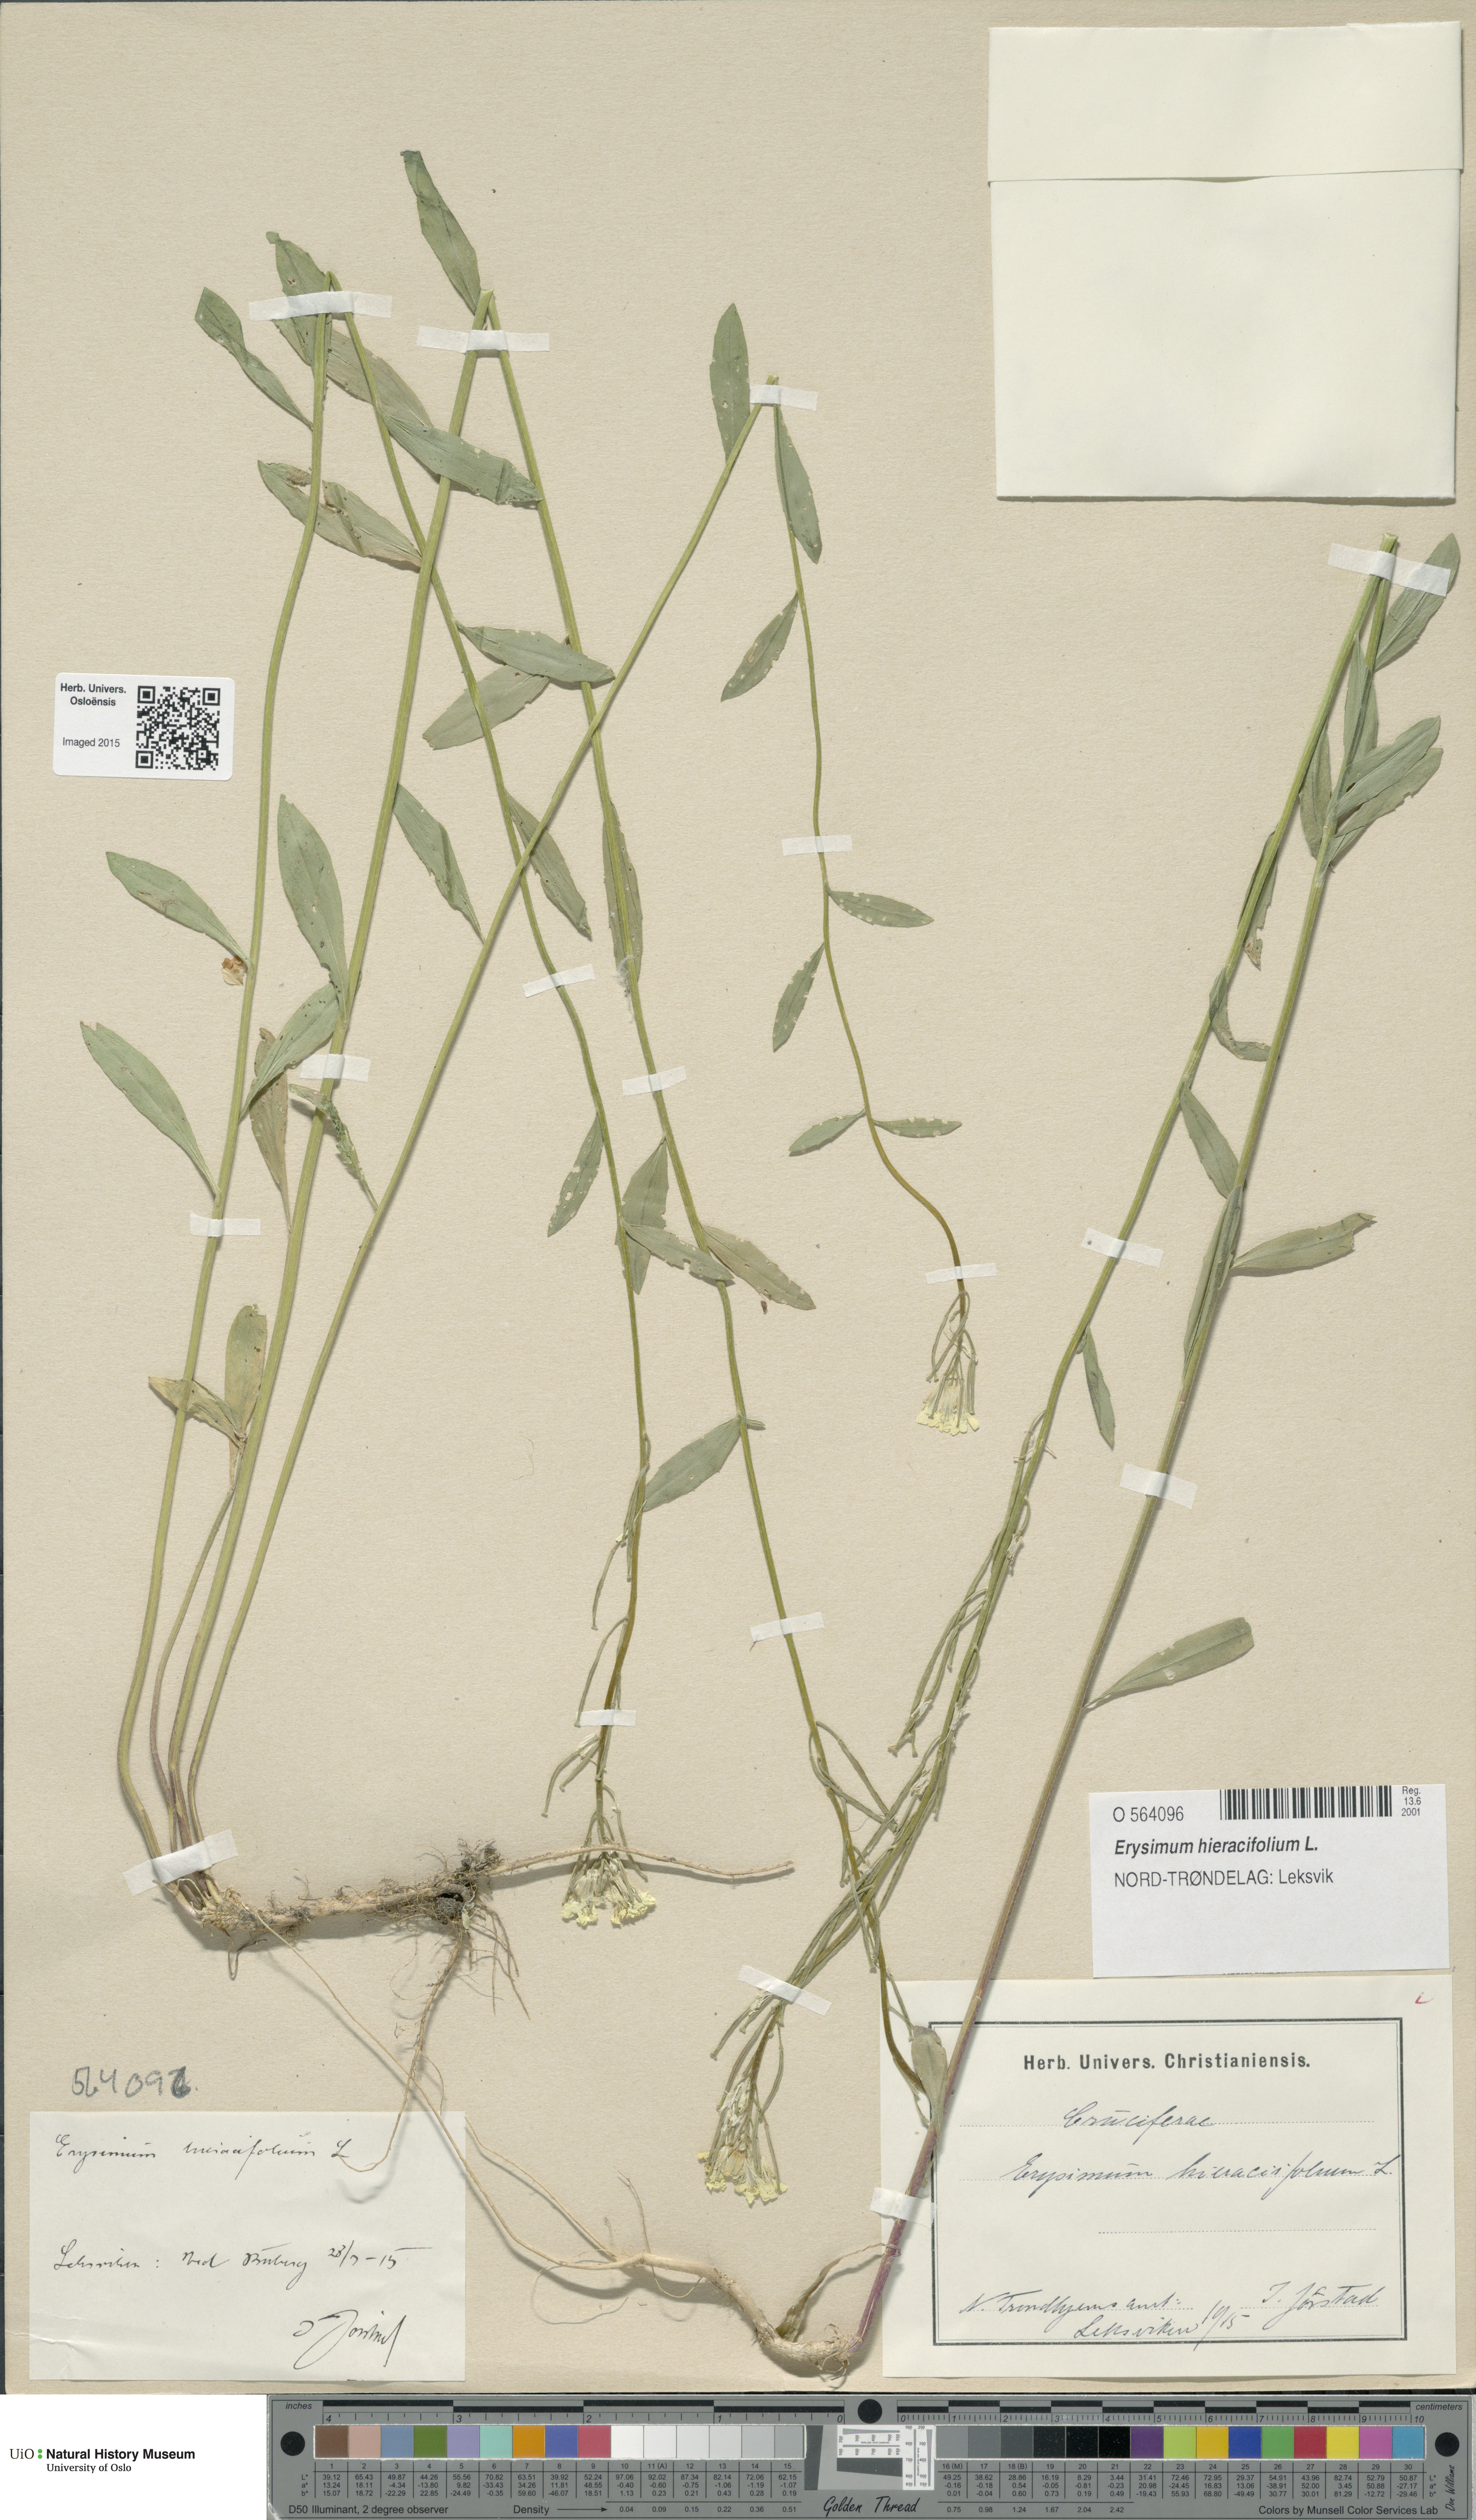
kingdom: Plantae
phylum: Tracheophyta
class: Magnoliopsida
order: Brassicales
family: Brassicaceae
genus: Erysimum
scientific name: Erysimum hieraciifolium
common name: European wallflower
